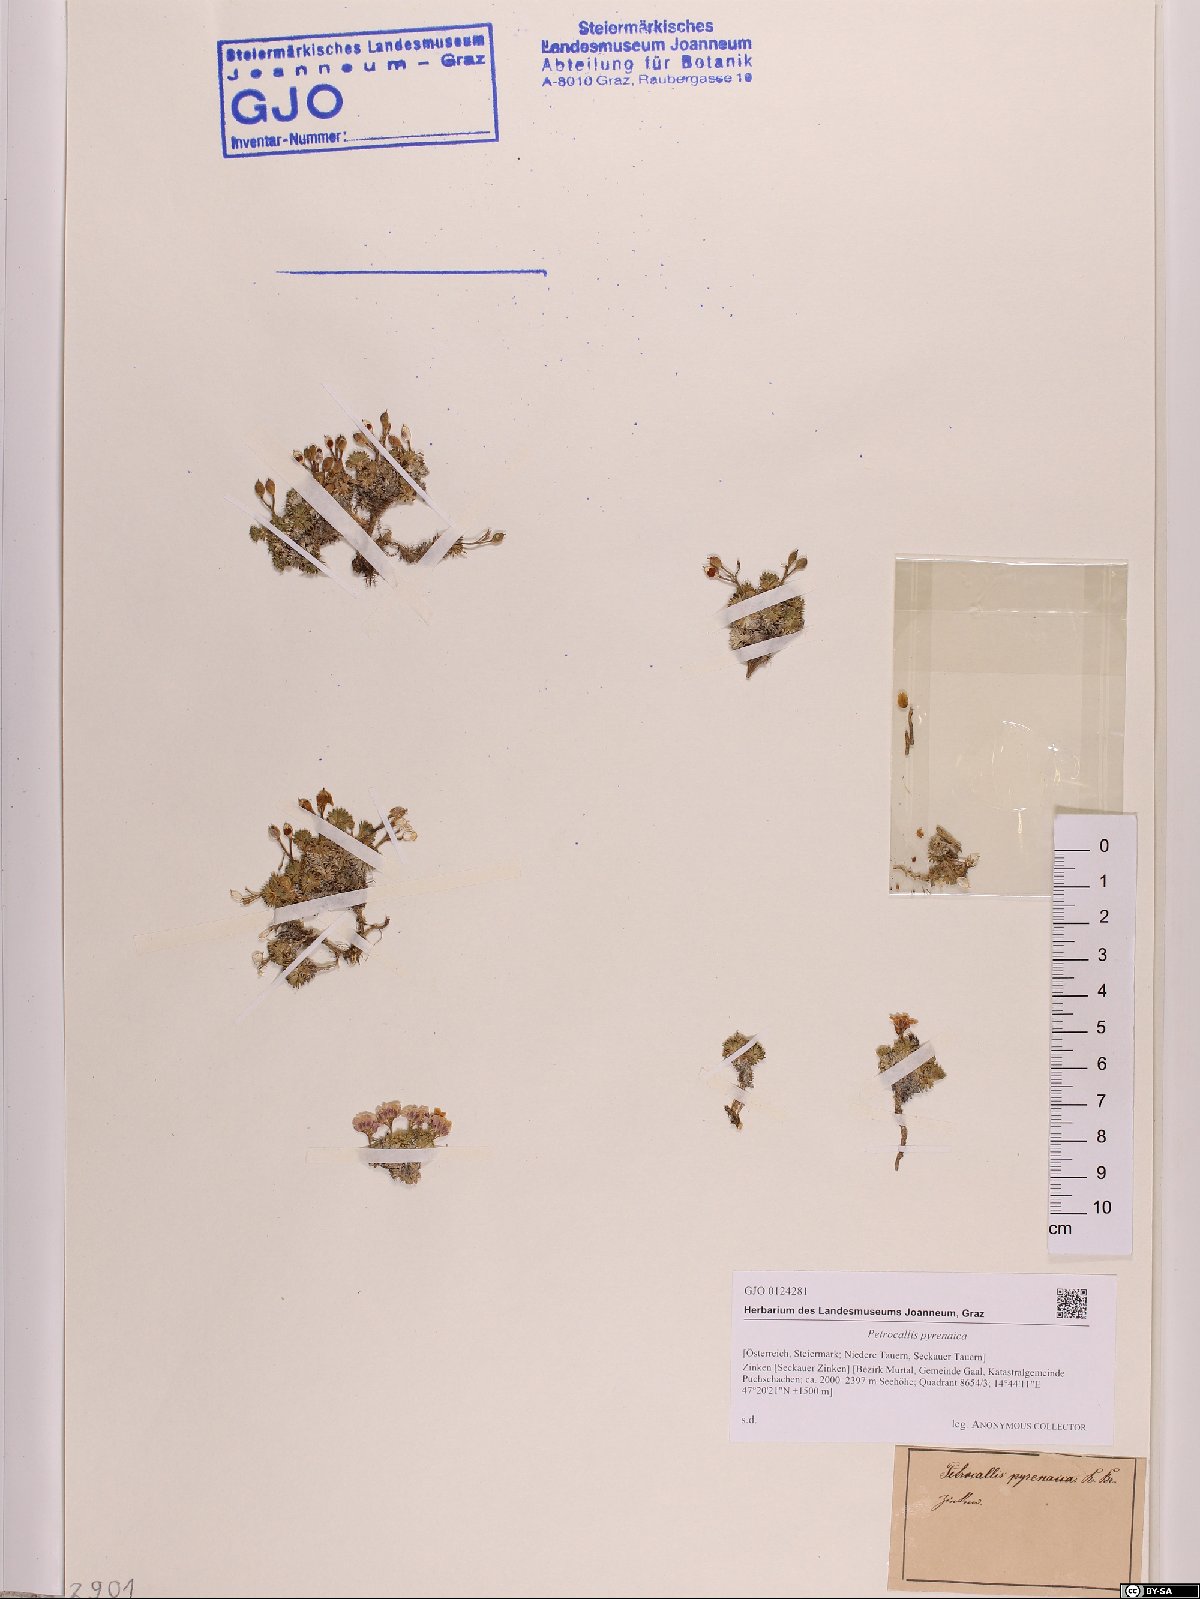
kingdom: Plantae
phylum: Tracheophyta
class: Magnoliopsida
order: Brassicales
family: Brassicaceae
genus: Petrocallis
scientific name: Petrocallis pyrenaica
